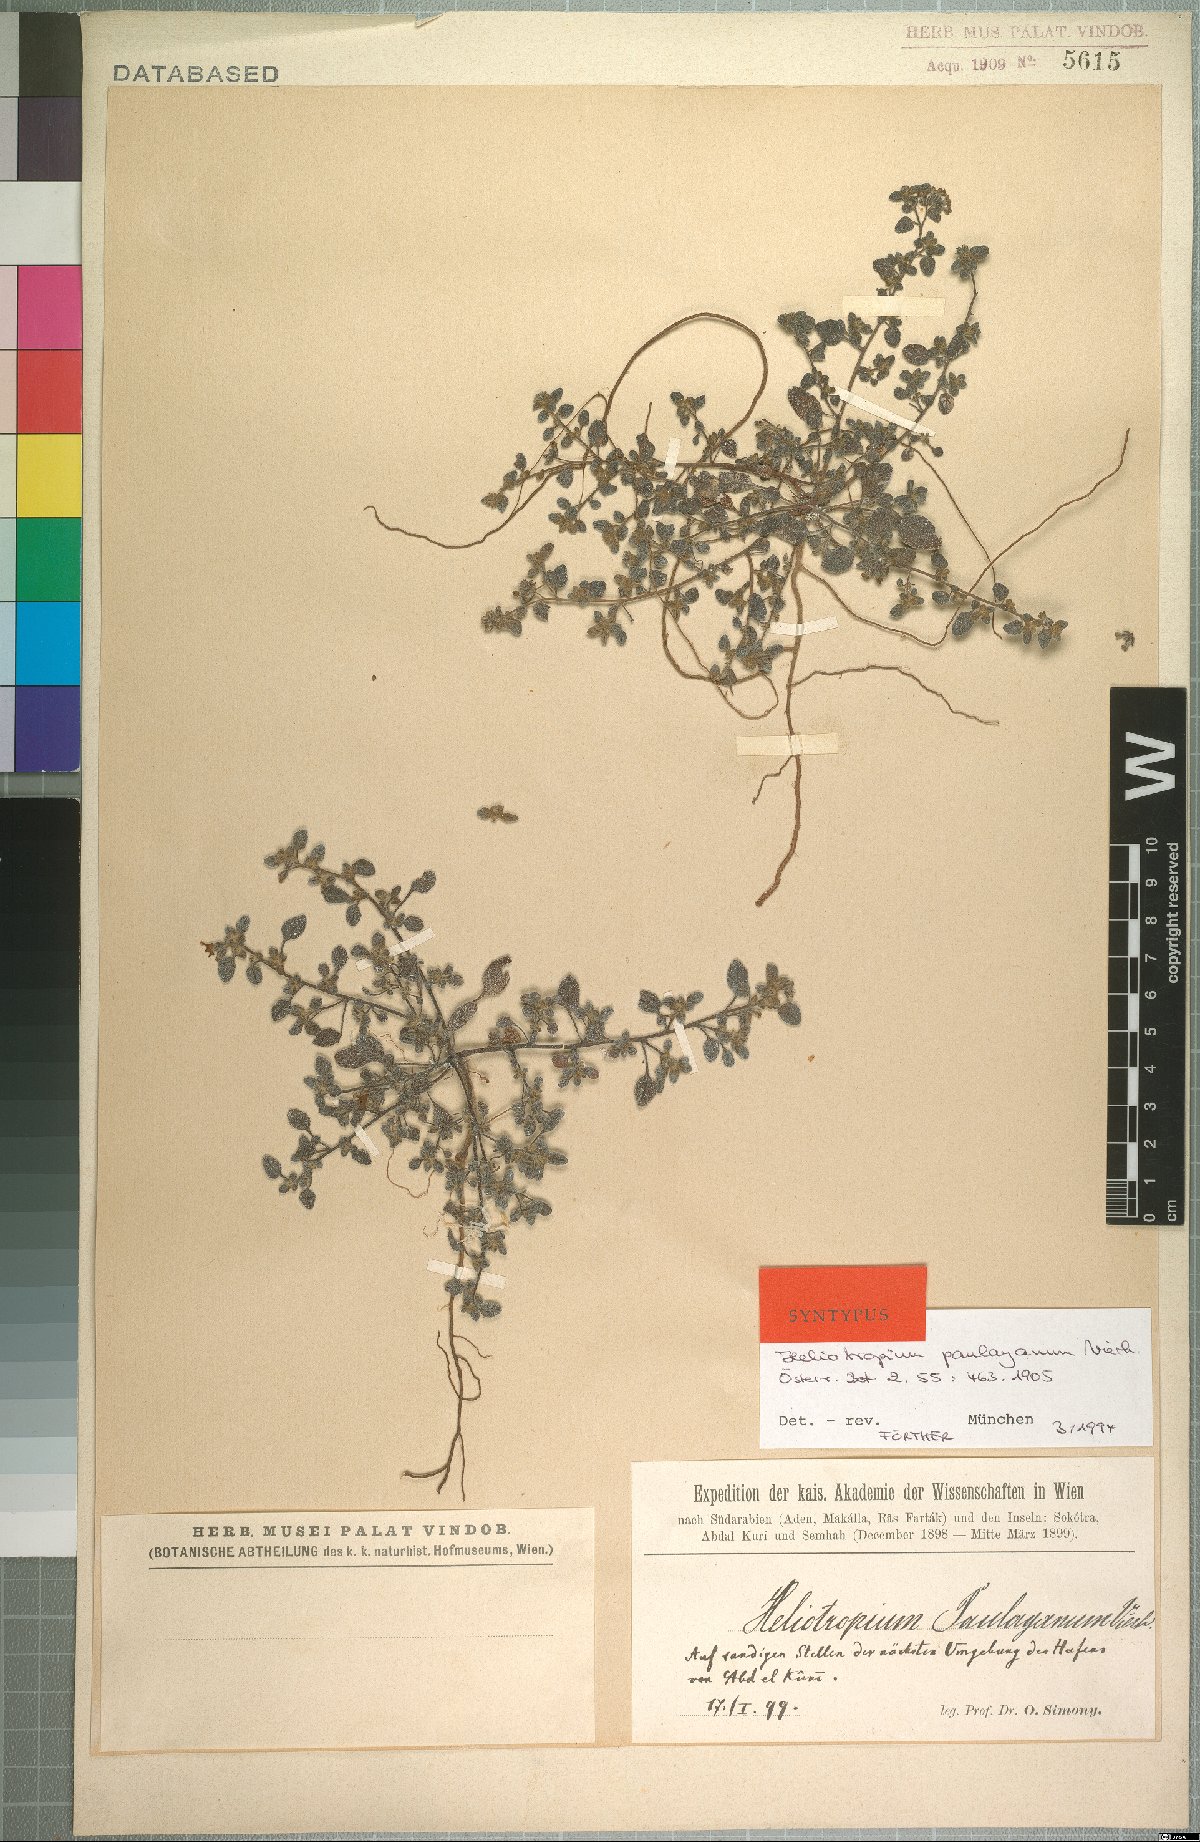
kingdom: Plantae
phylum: Tracheophyta
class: Magnoliopsida
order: Boraginales
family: Heliotropiaceae
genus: Heliotropium
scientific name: Heliotropium paulayanum
